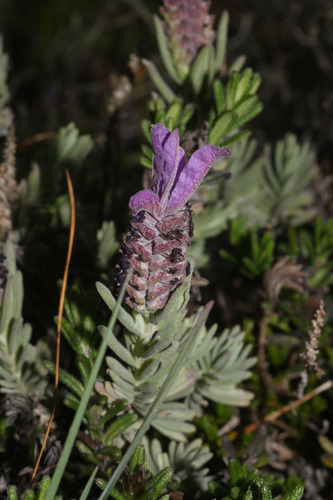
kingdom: Plantae
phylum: Tracheophyta
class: Magnoliopsida
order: Lamiales
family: Lamiaceae
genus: Lavandula
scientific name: Lavandula stoechas
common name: French lavender
